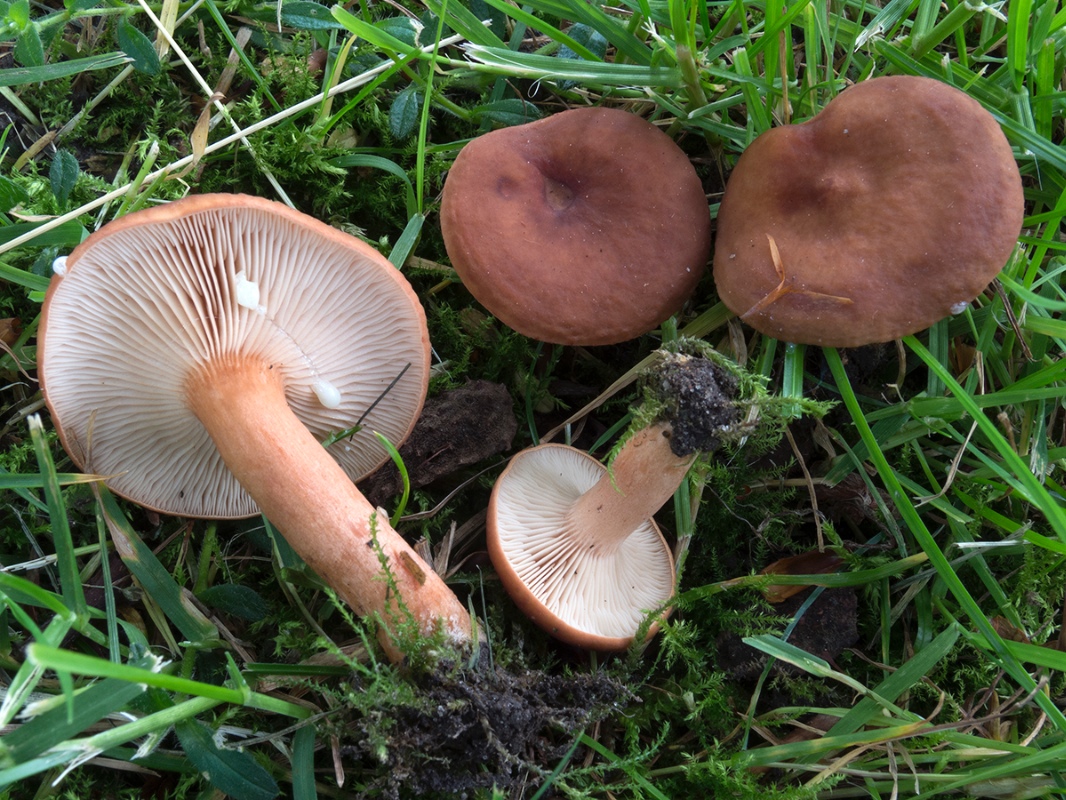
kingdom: Fungi
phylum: Basidiomycota
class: Agaricomycetes
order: Russulales
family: Russulaceae
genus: Lactarius
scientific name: Lactarius subdulcis
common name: sødlig mælkehat
